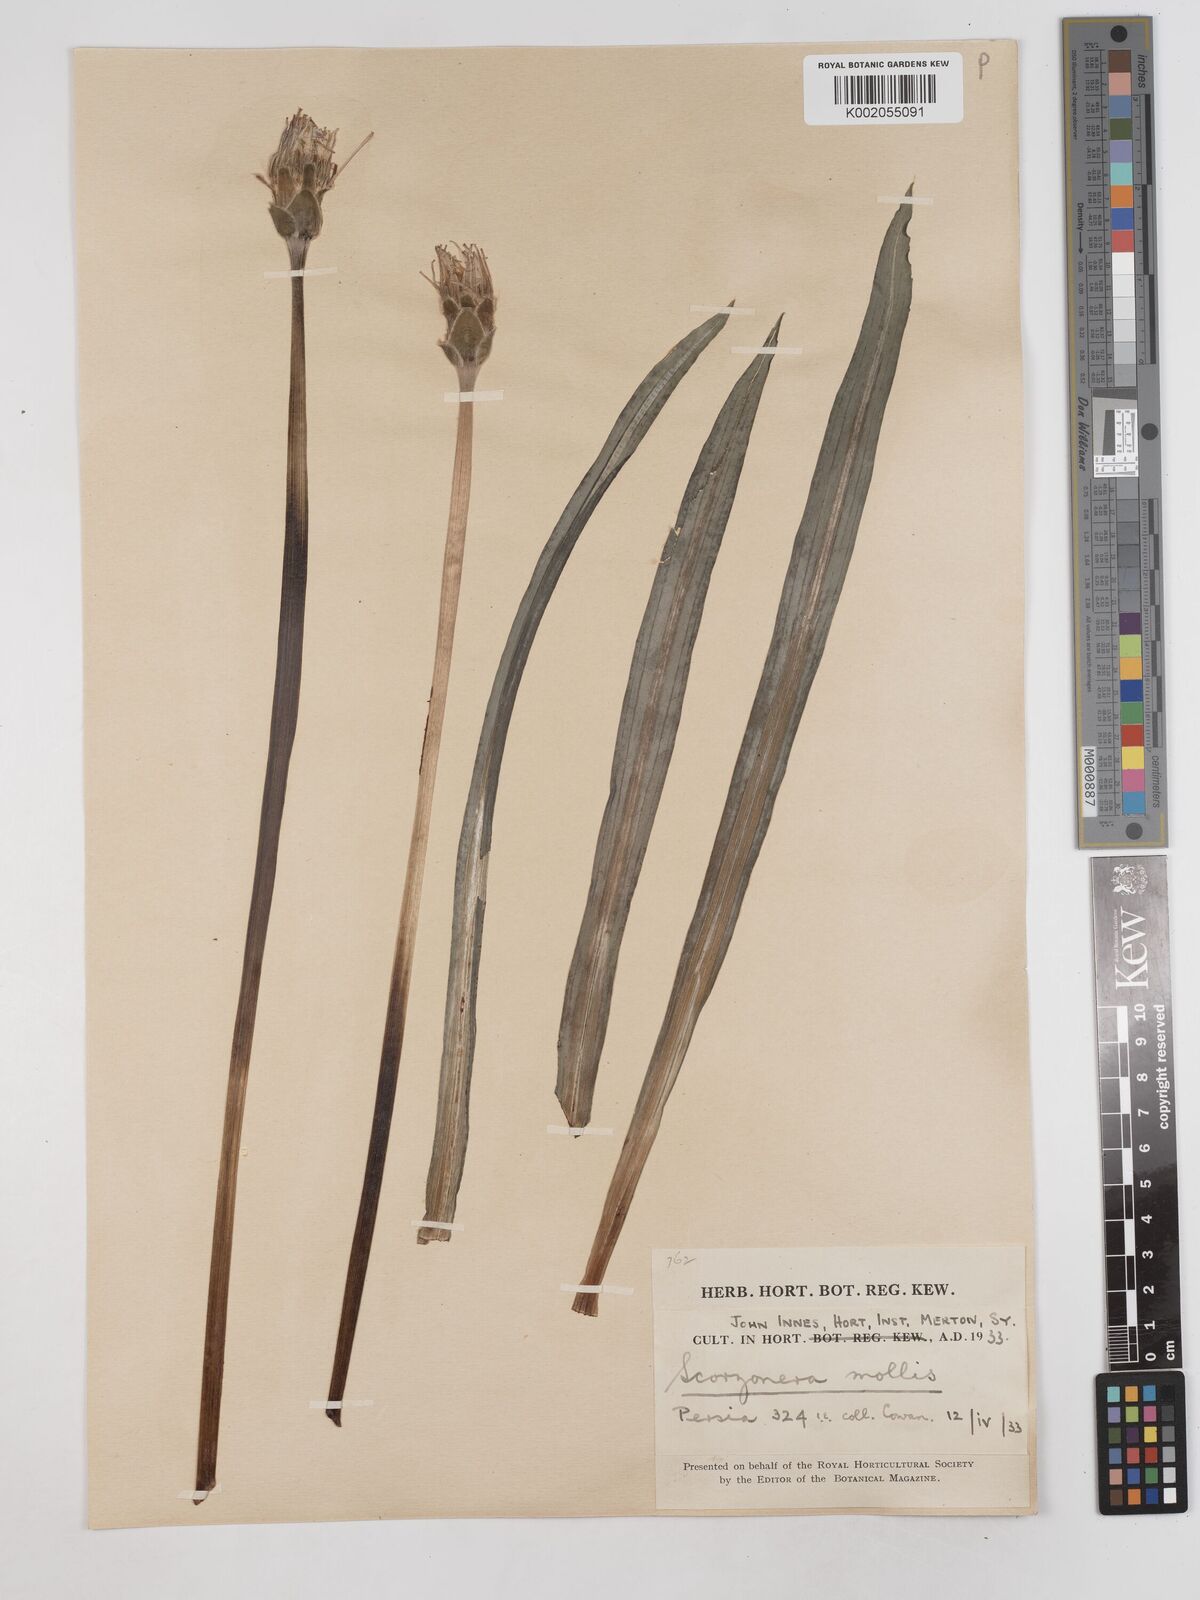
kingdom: Plantae
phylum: Tracheophyta
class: Magnoliopsida
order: Asterales
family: Asteraceae
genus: Candollea
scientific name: Candollea mollis
